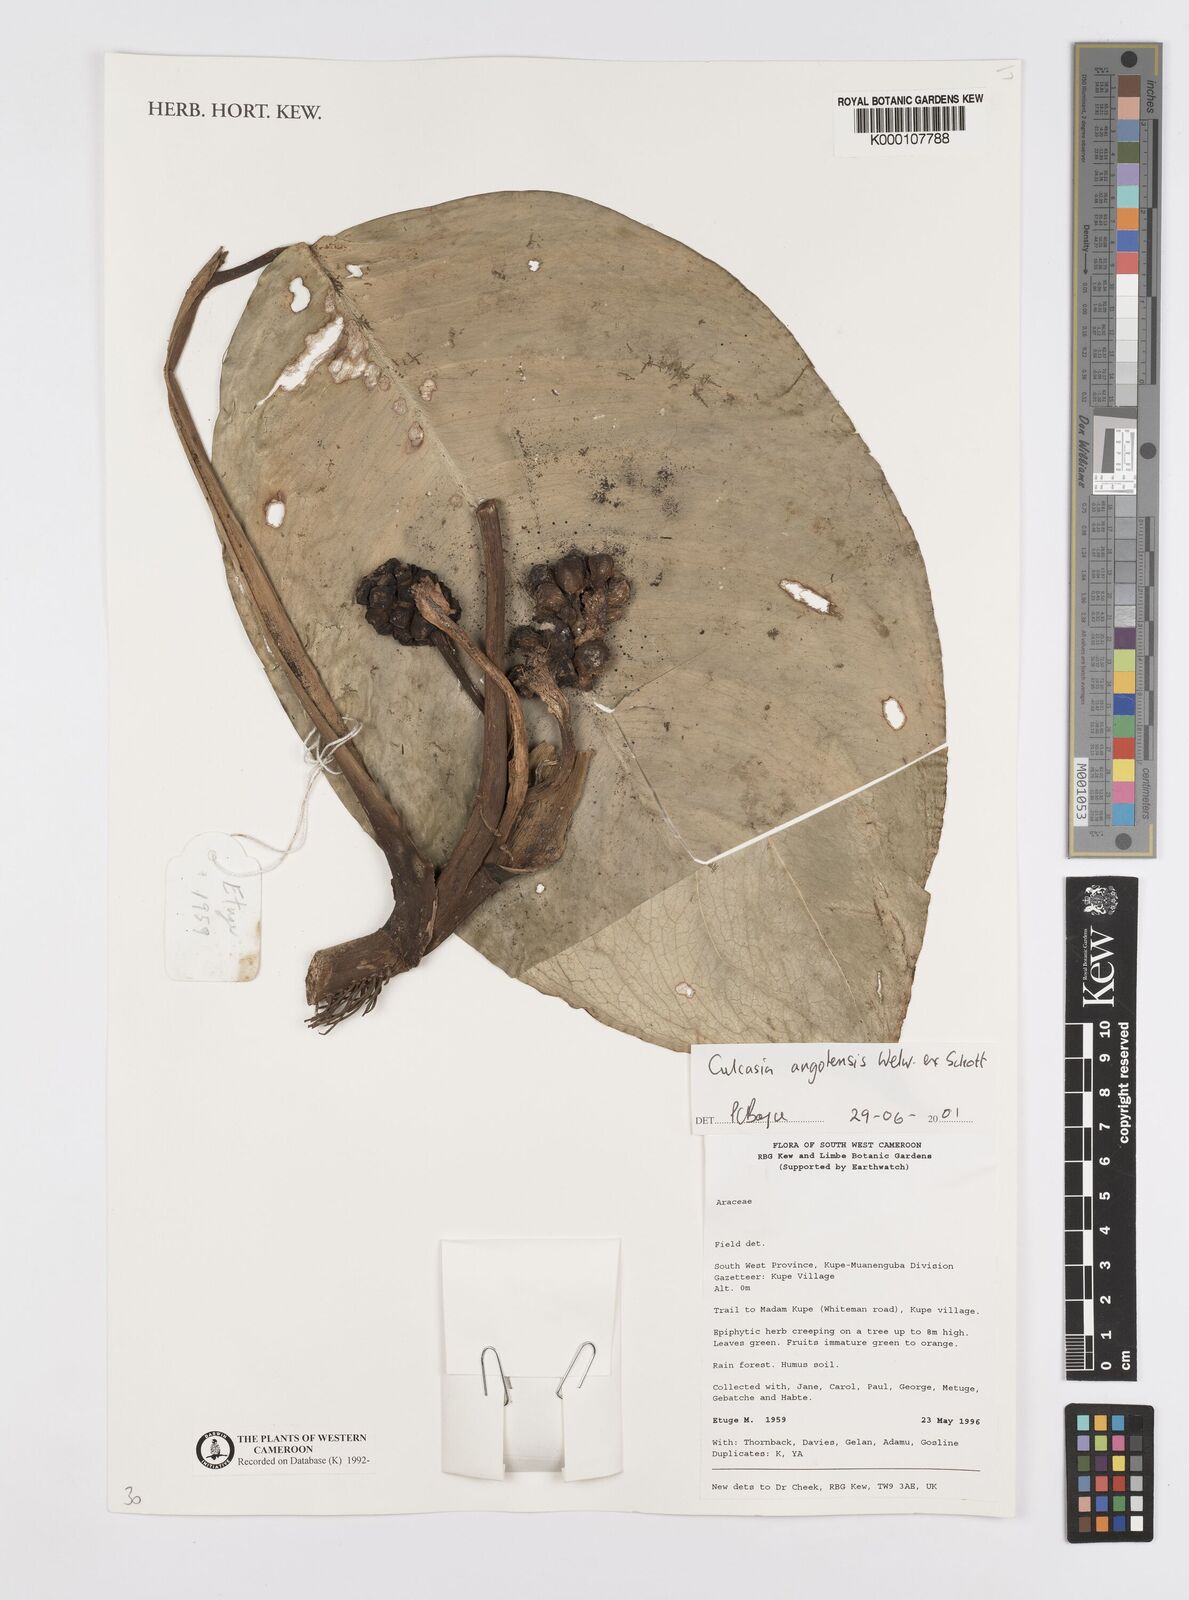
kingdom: Plantae
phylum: Tracheophyta
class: Liliopsida
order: Alismatales
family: Araceae
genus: Culcasia
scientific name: Culcasia parviflora
